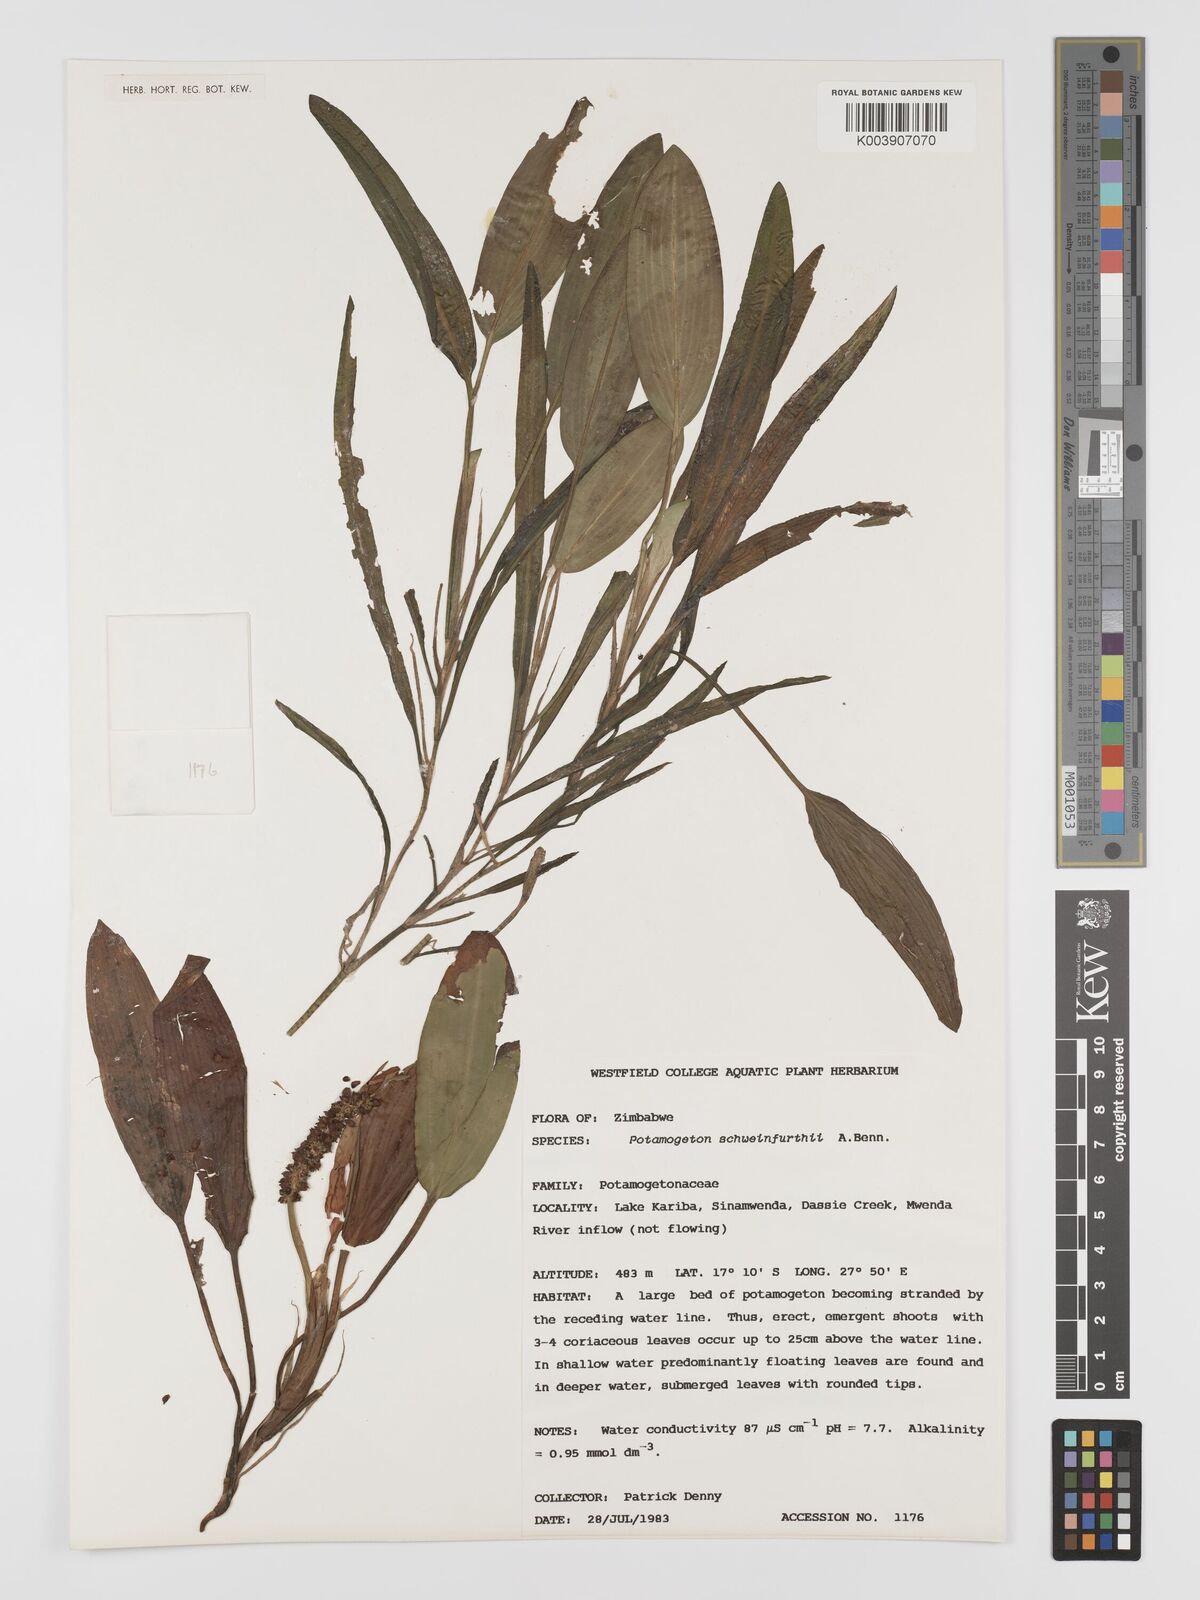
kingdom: Plantae
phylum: Tracheophyta
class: Liliopsida
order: Alismatales
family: Potamogetonaceae
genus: Potamogeton
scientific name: Potamogeton schweinfurthii
